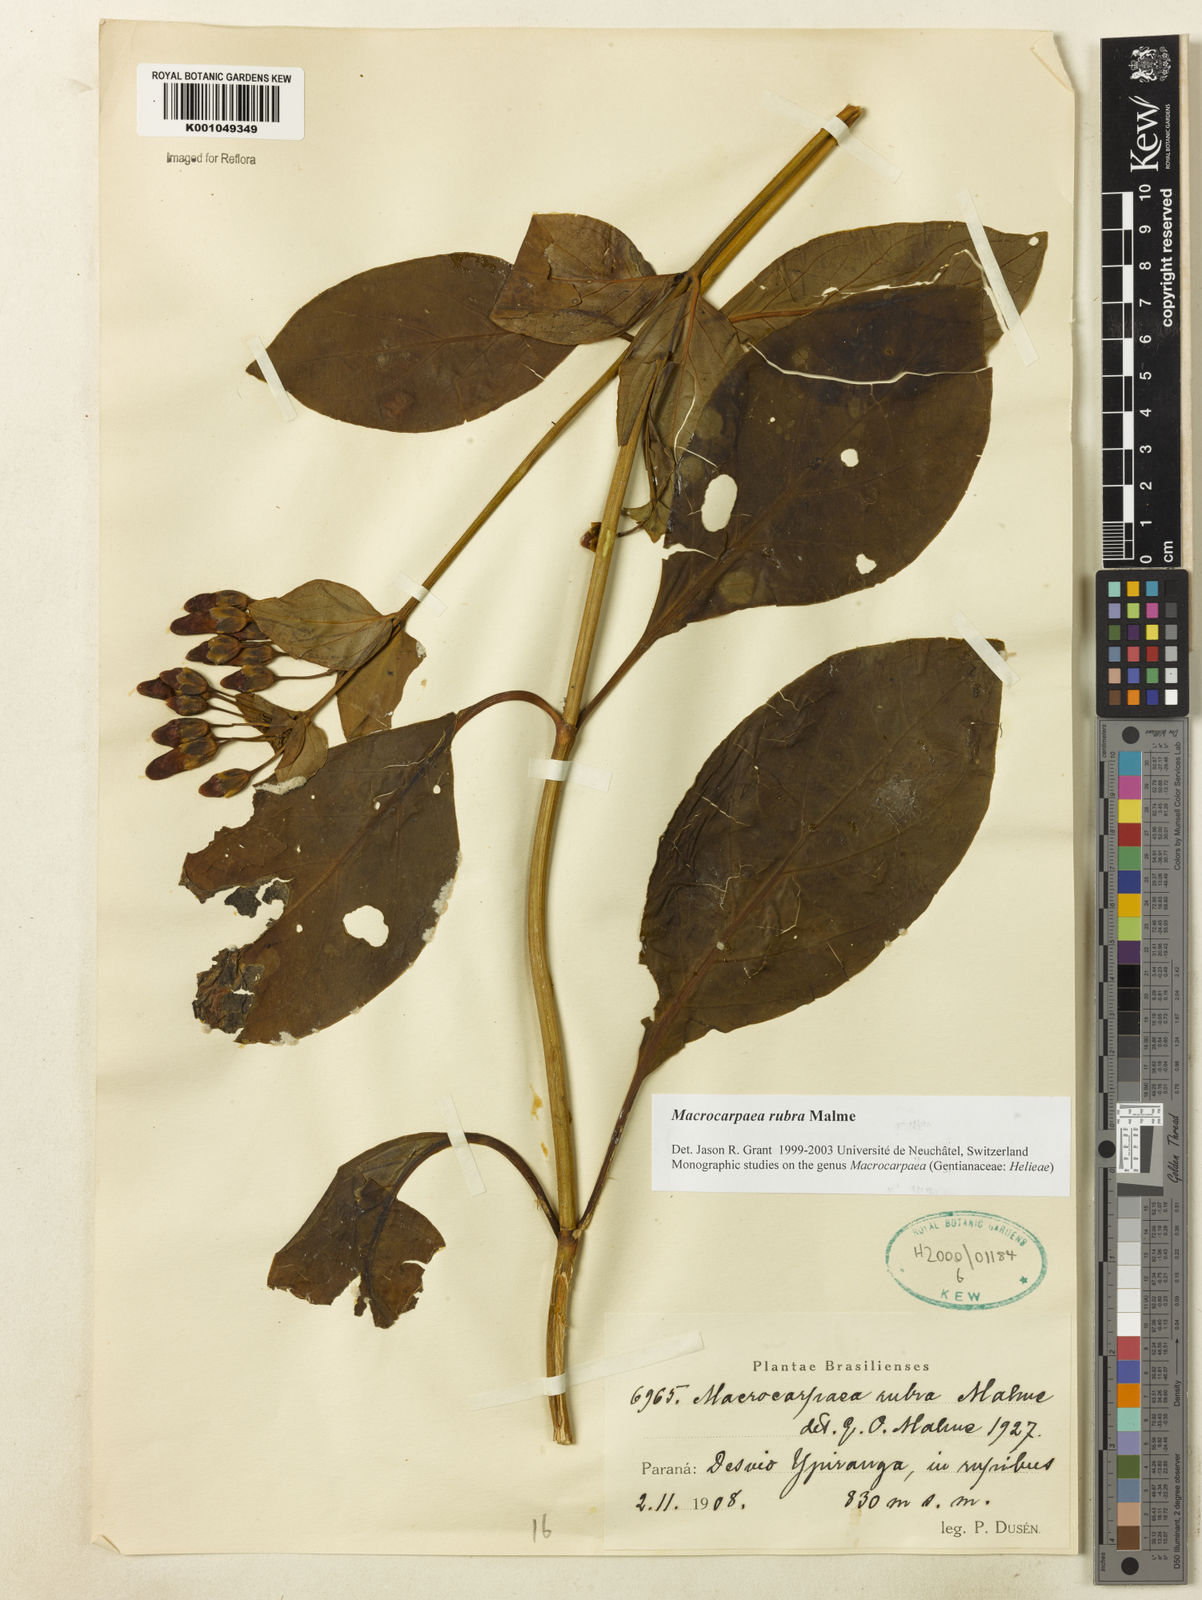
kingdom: Plantae
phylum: Tracheophyta
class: Magnoliopsida
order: Gentianales
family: Gentianaceae
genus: Macrocarpaea
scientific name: Macrocarpaea rubra
